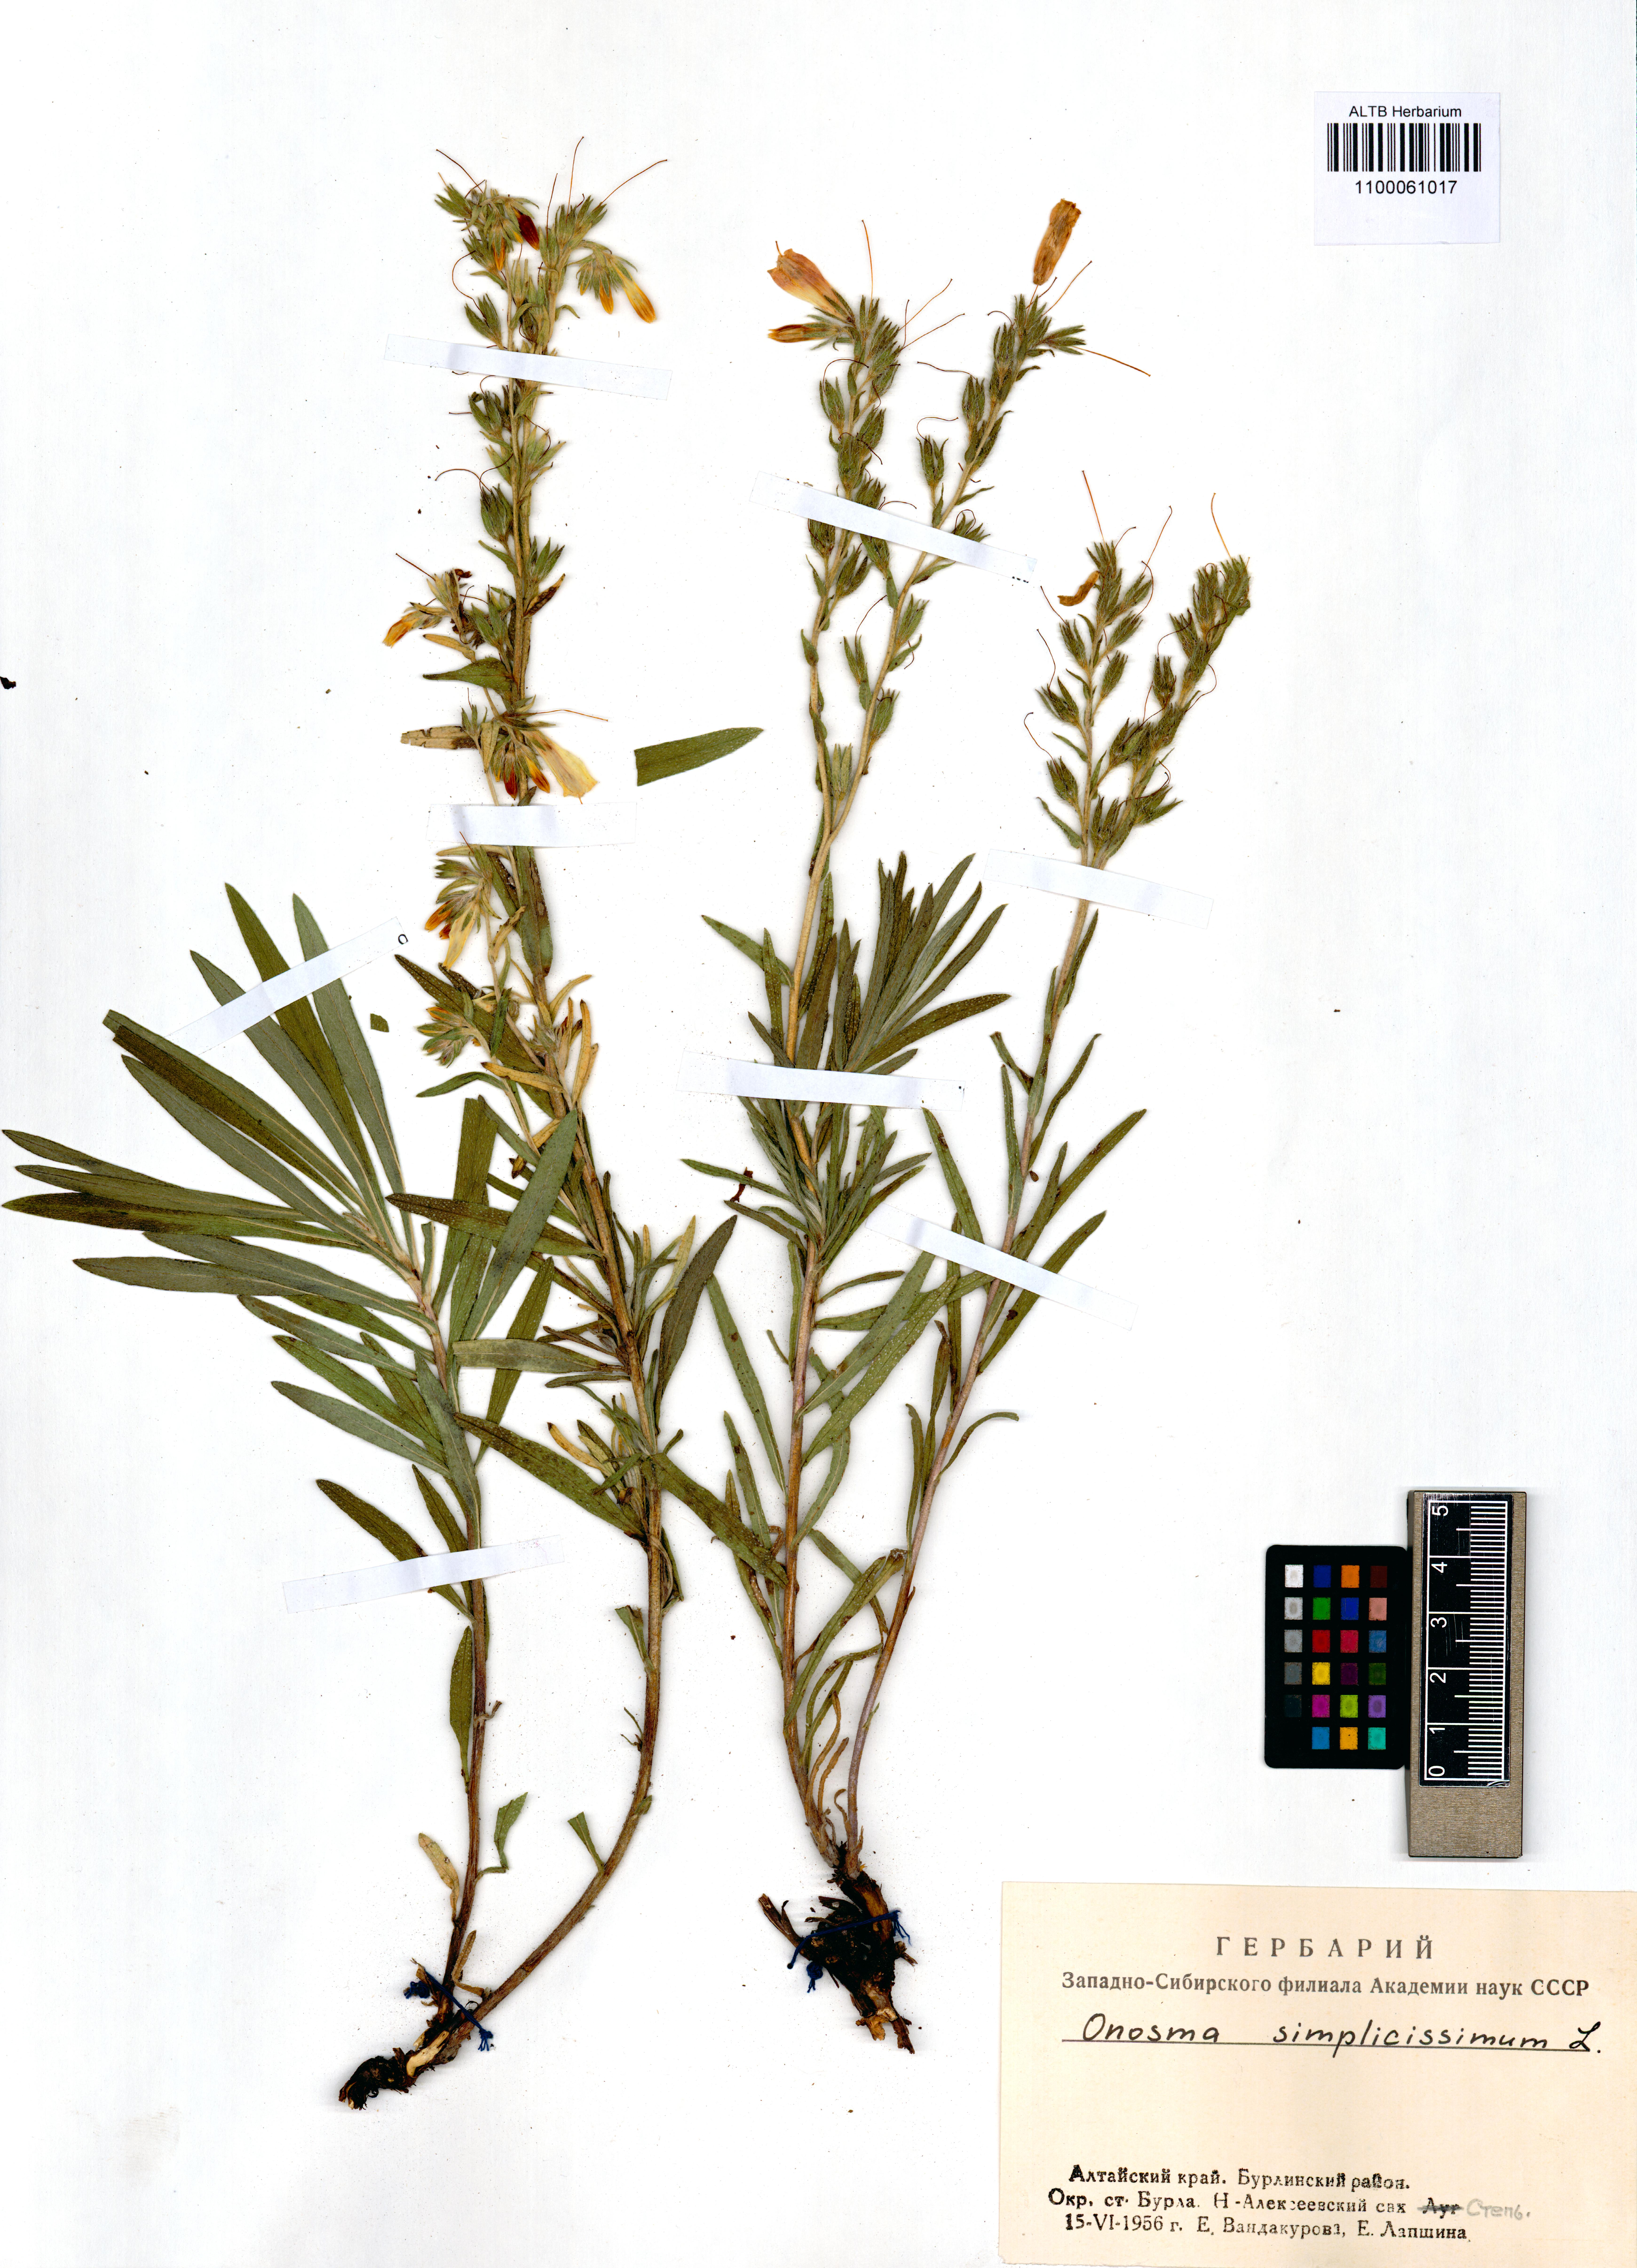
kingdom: Plantae
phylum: Tracheophyta
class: Magnoliopsida
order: Boraginales
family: Boraginaceae
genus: Onosma
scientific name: Onosma simplicissima
